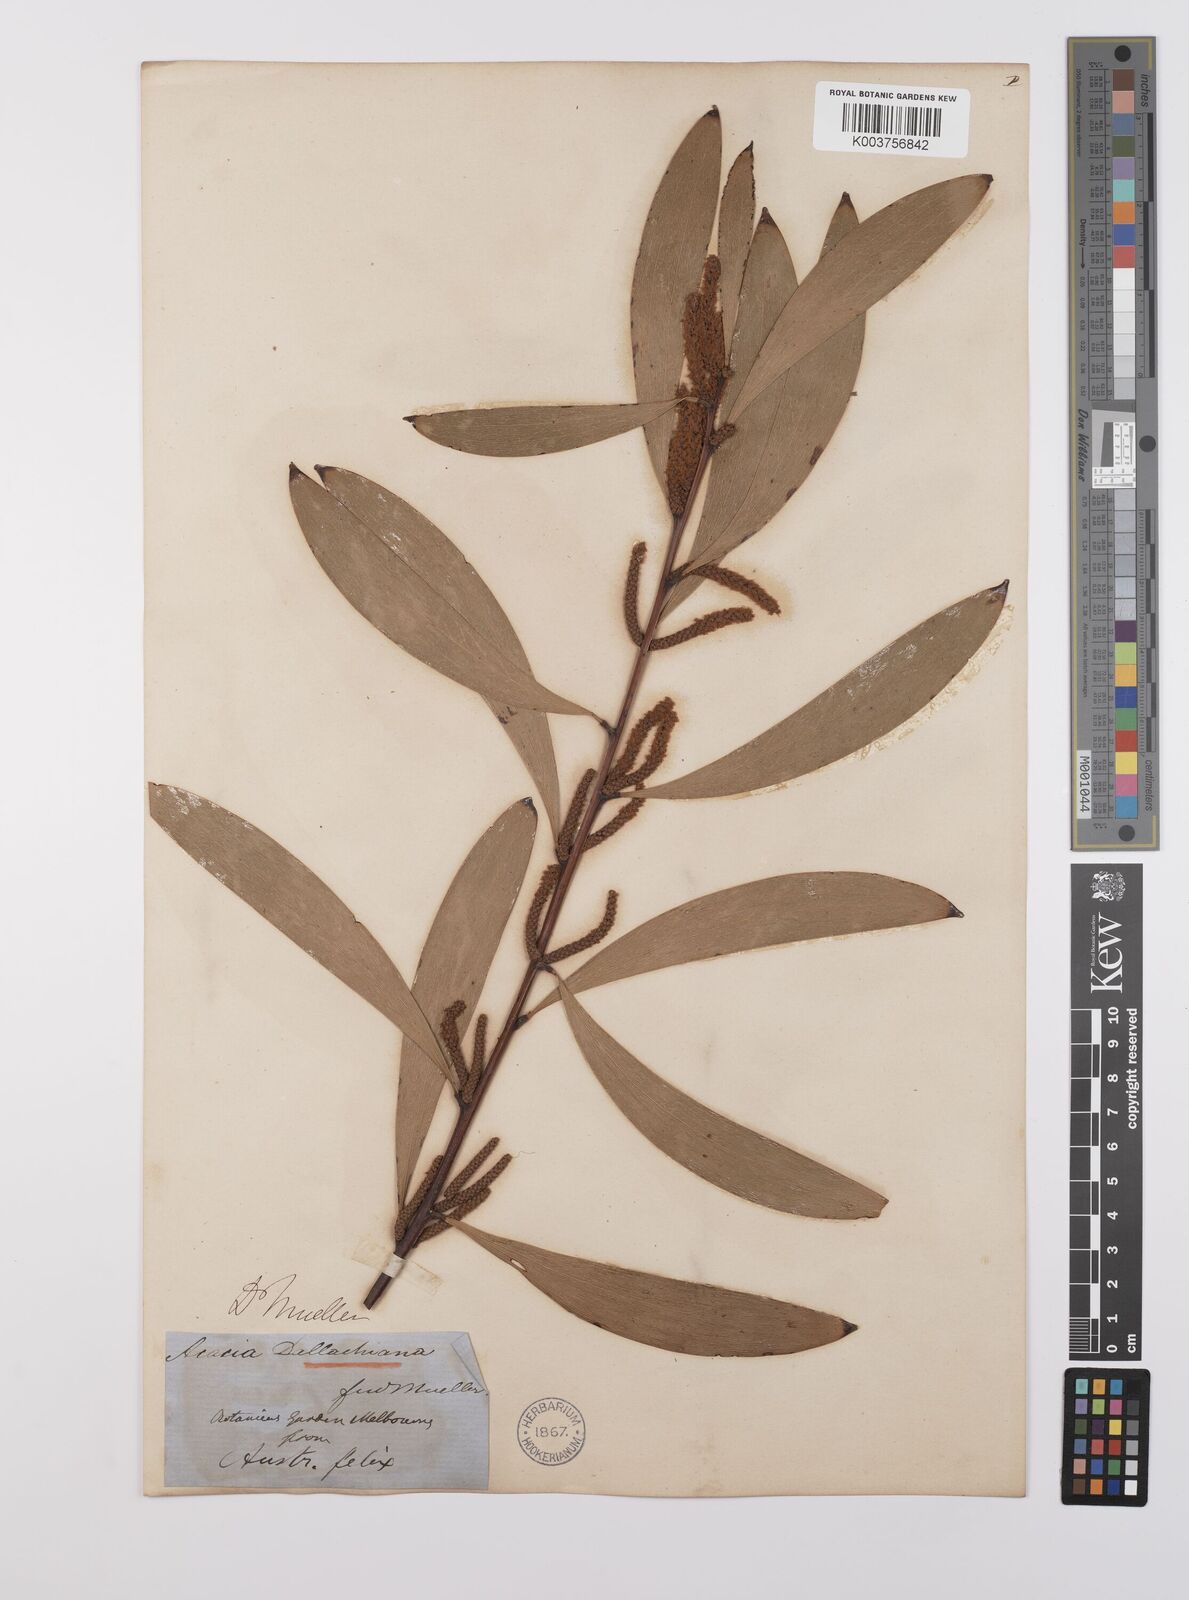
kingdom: Plantae
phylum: Tracheophyta
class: Magnoliopsida
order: Fabales
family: Fabaceae
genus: Acacia
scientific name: Acacia dallachiana
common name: Catkin wattle
